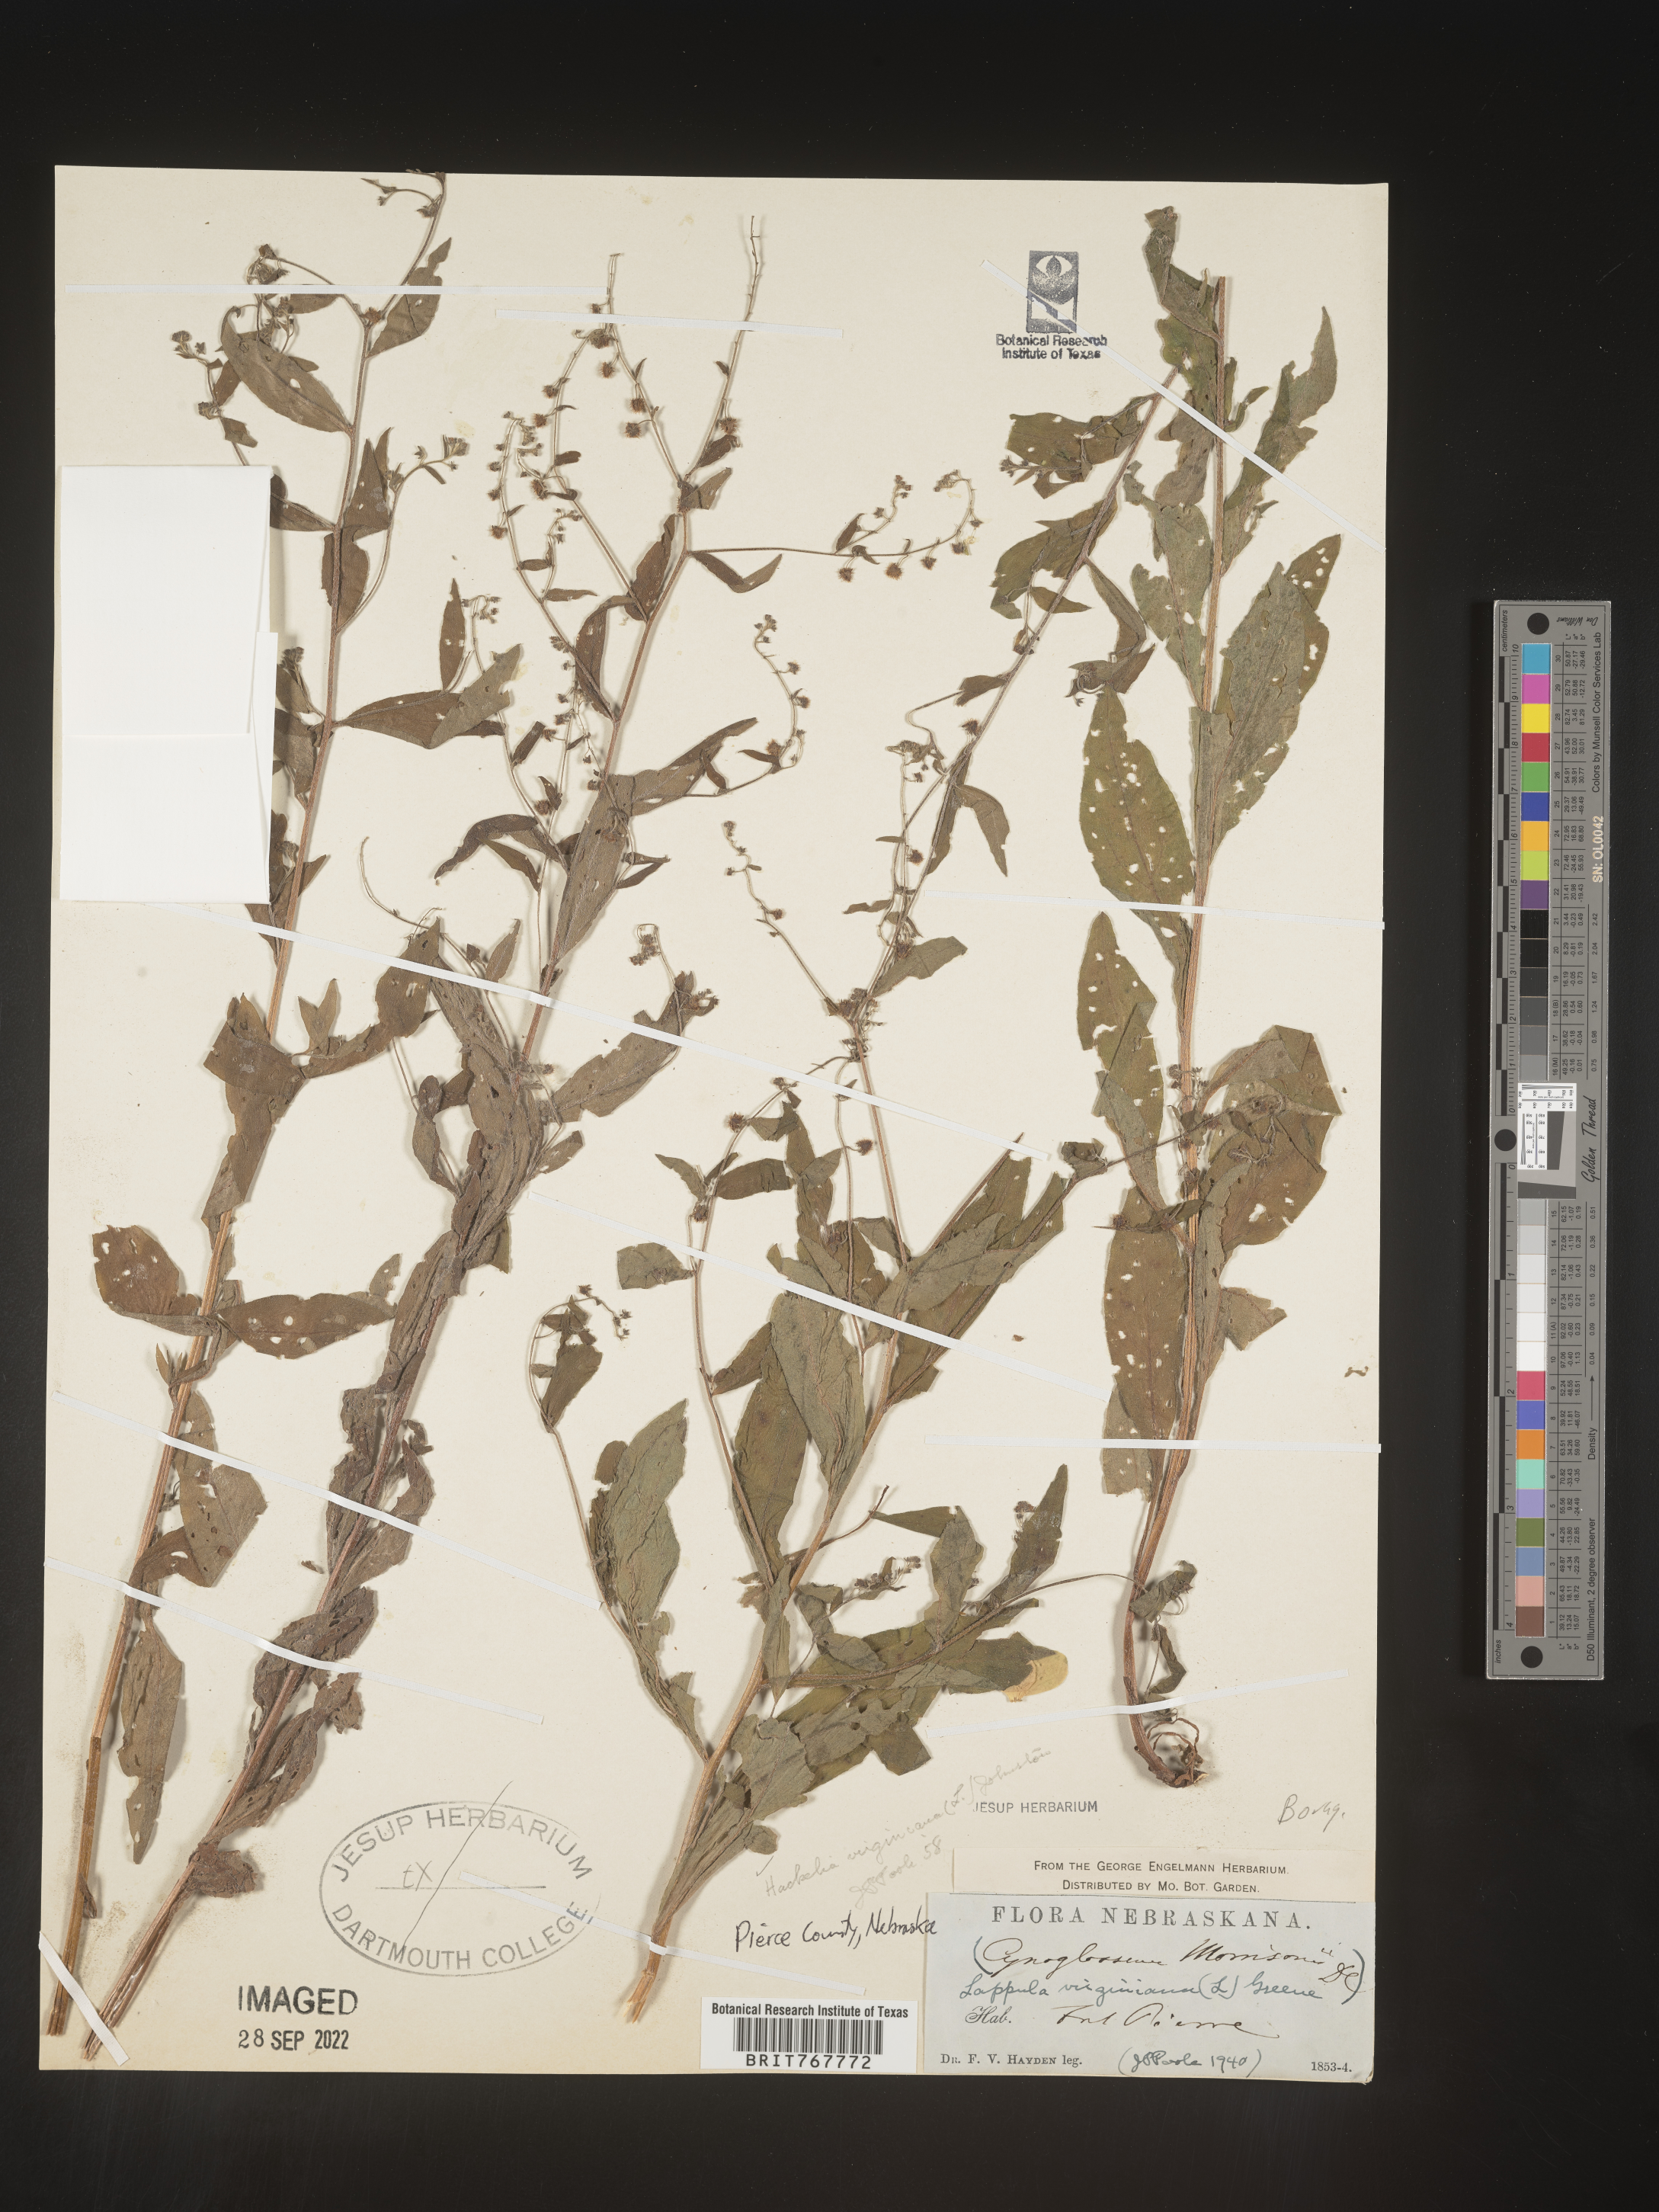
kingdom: Plantae
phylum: Tracheophyta
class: Magnoliopsida
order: Boraginales
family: Boraginaceae
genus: Hackelia
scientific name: Hackelia virginiana
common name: Beggar's-lice
